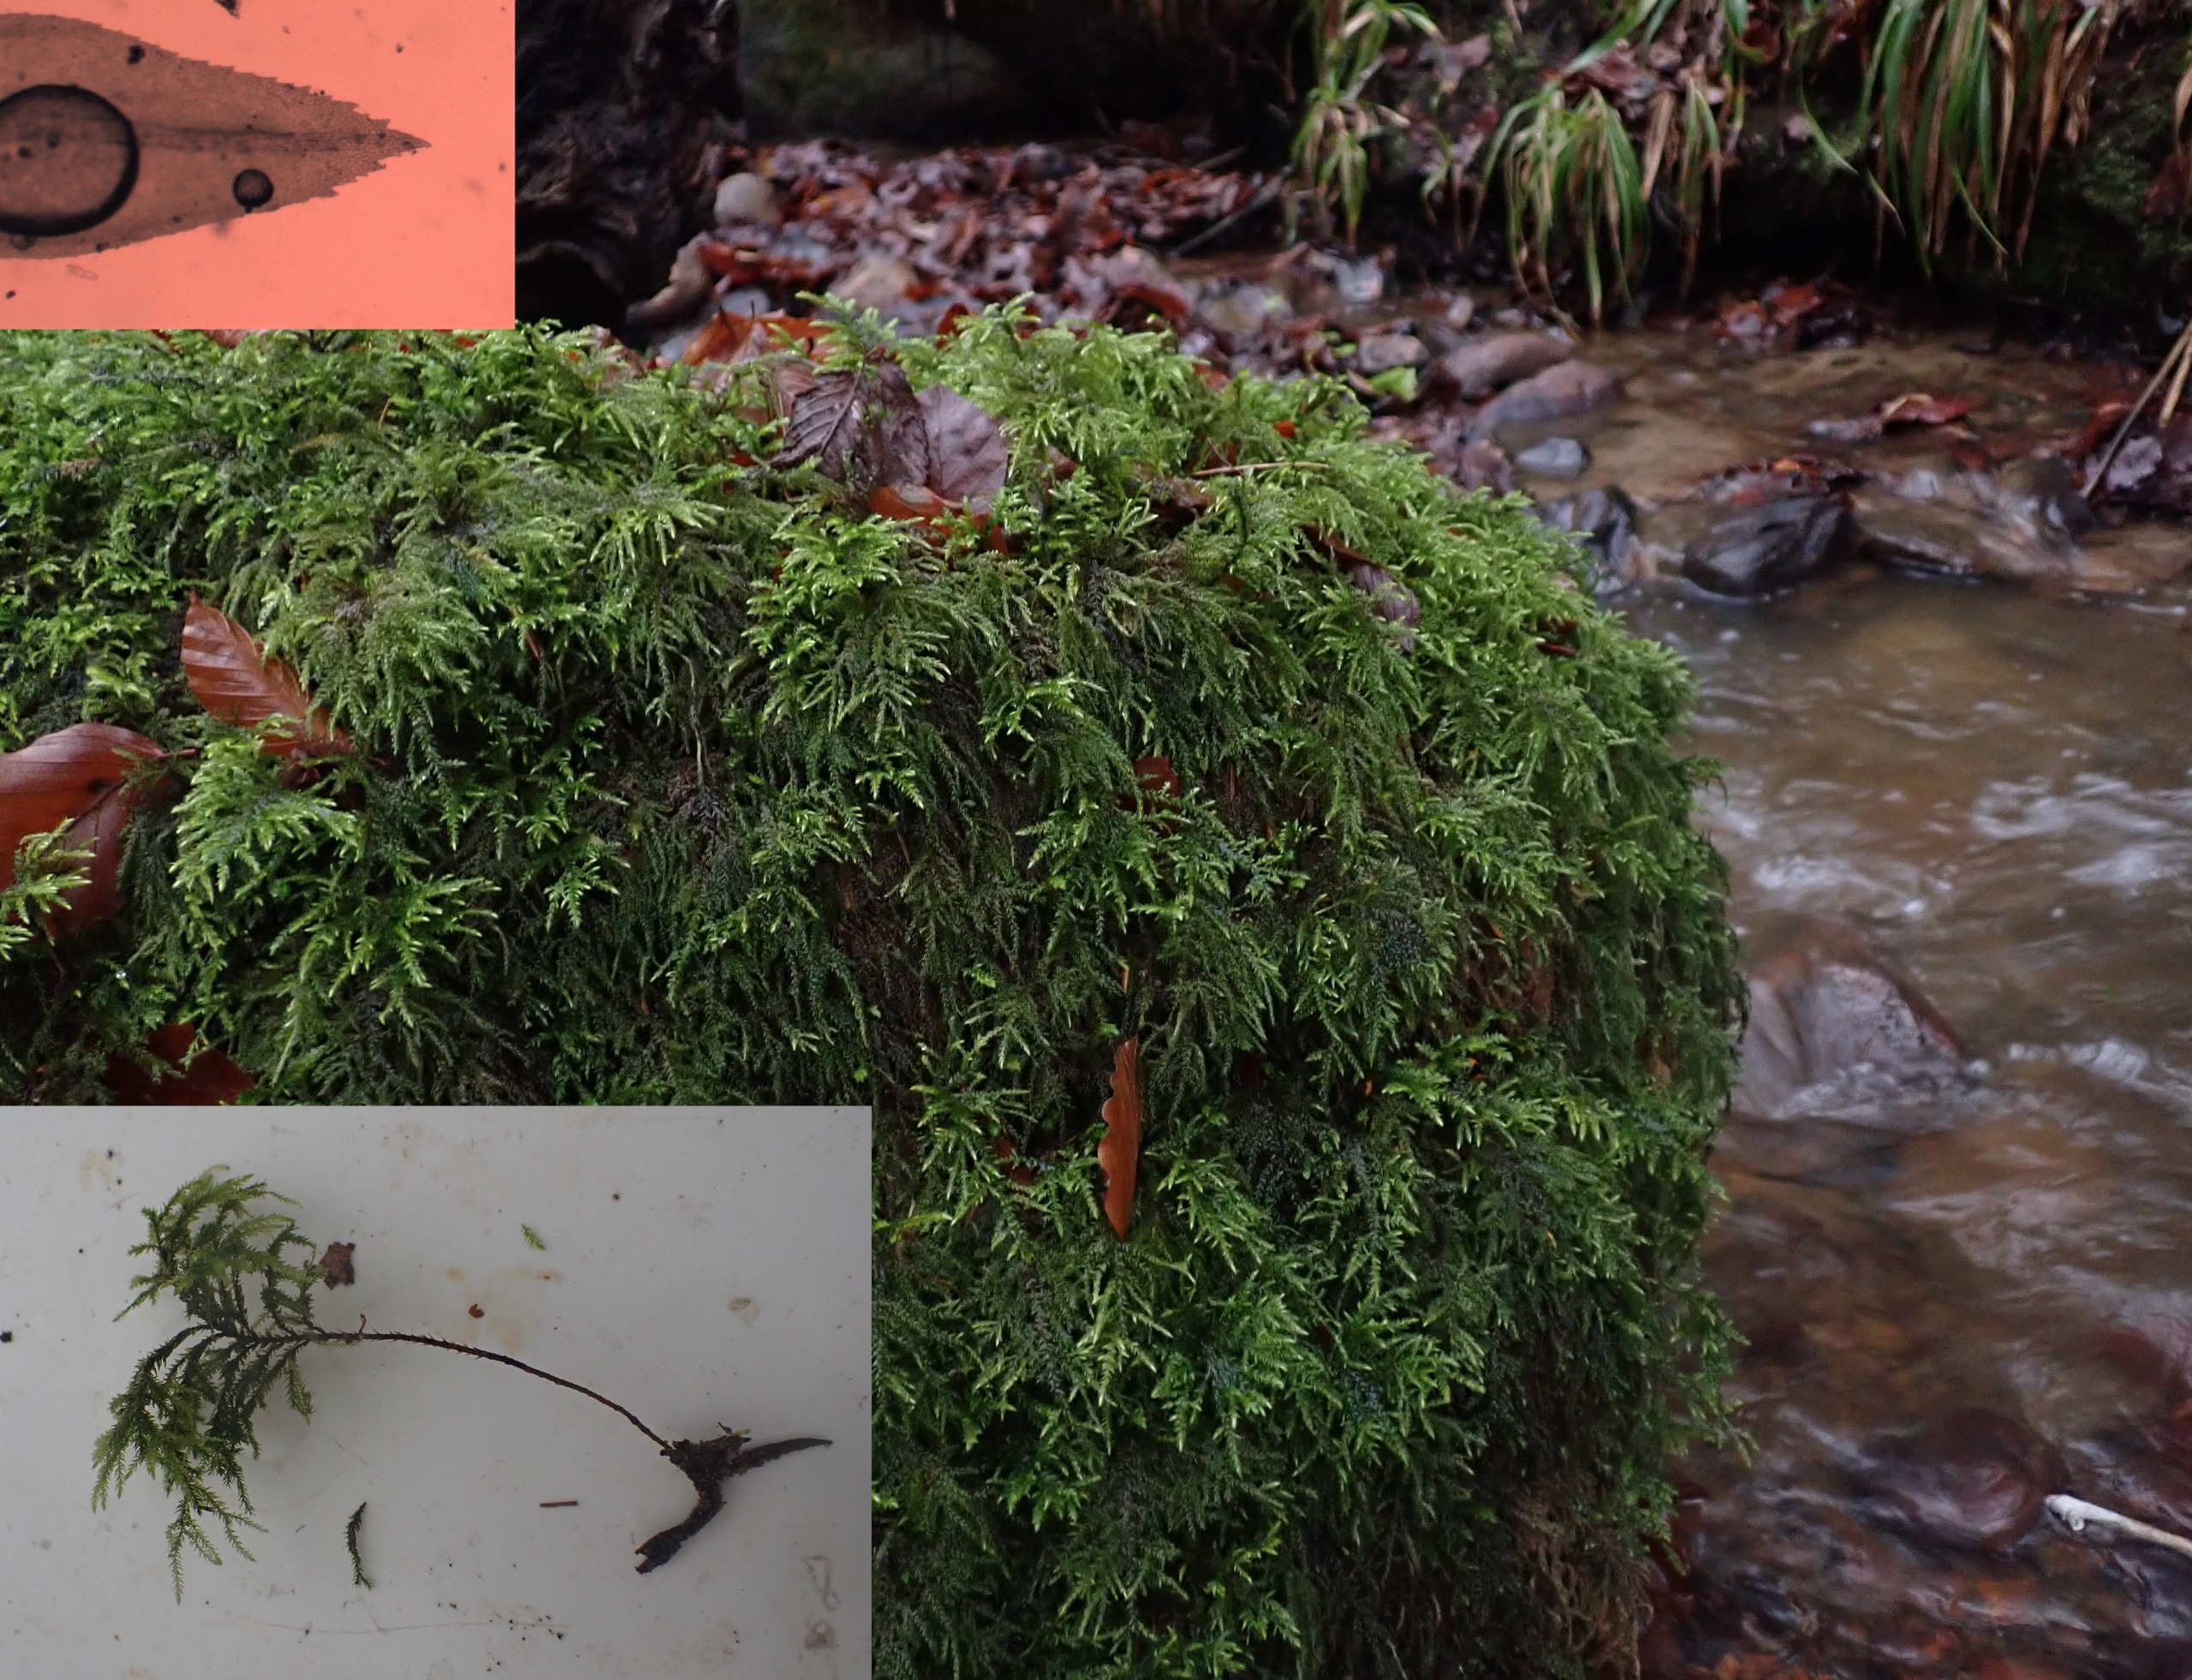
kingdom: Plantae
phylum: Bryophyta
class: Bryopsida
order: Hypnales
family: Neckeraceae
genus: Thamnobryum
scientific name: Thamnobryum alopecurum
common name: Mat bækkost
